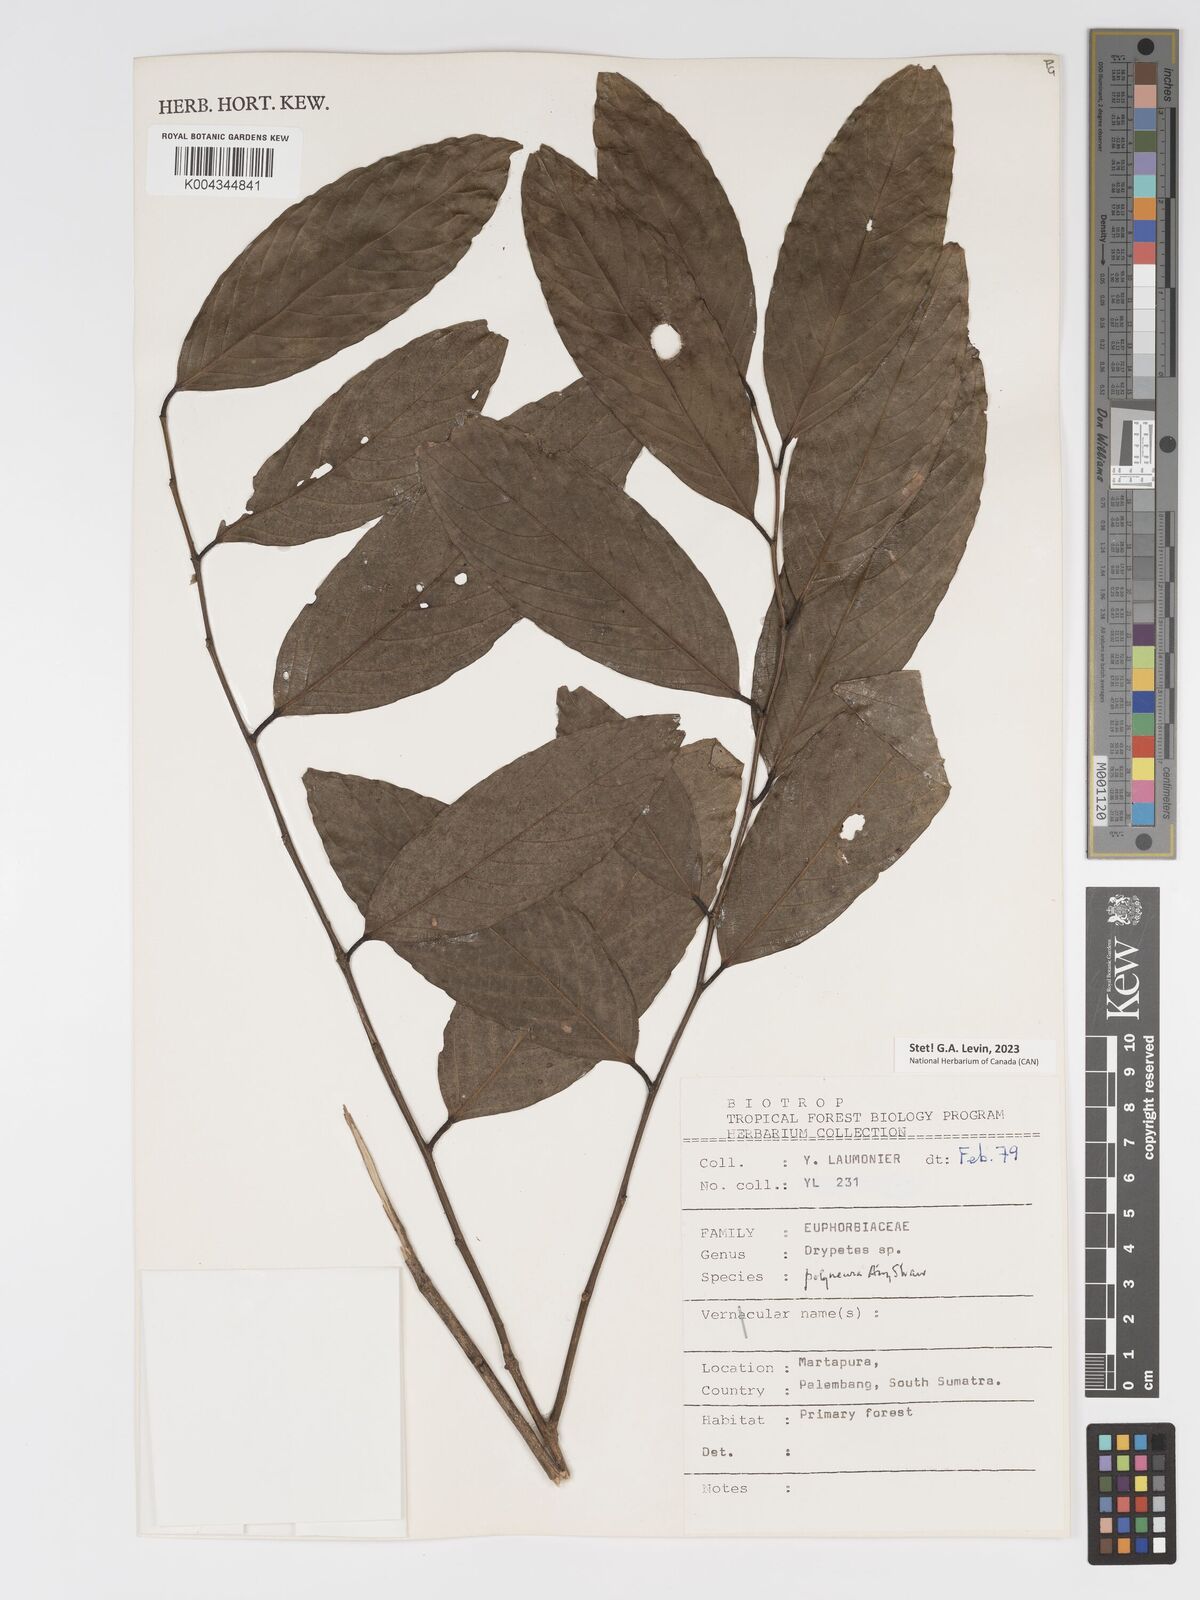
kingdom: Plantae
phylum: Tracheophyta
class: Magnoliopsida
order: Malpighiales
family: Putranjivaceae
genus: Drypetes
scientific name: Drypetes polyneura
